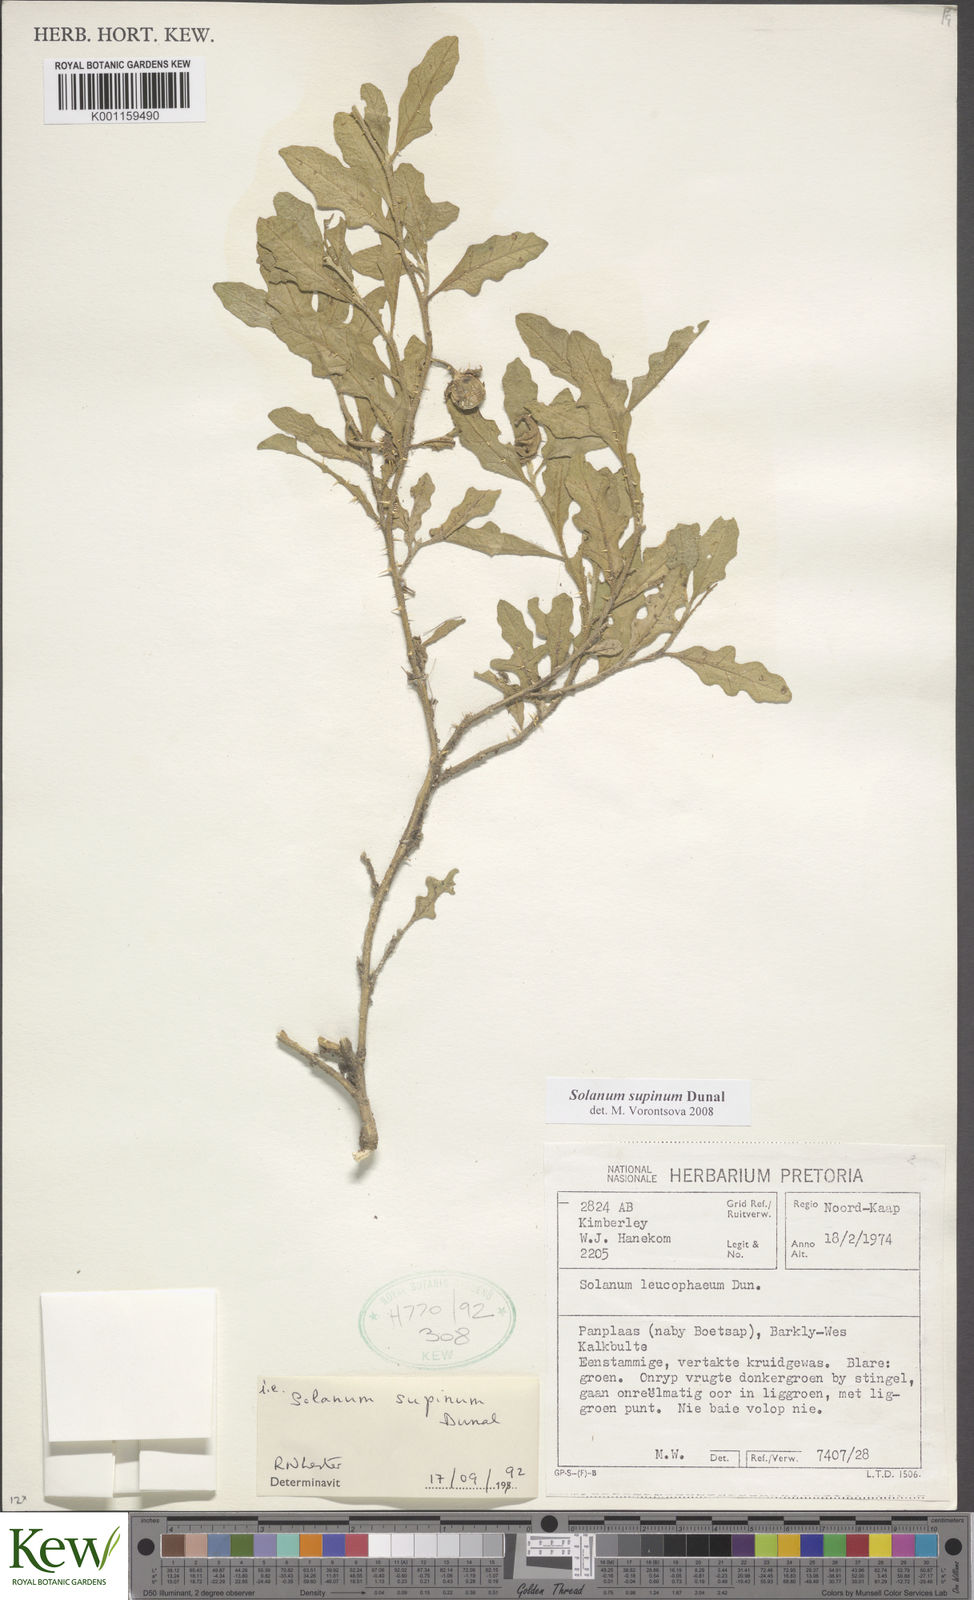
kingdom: Plantae
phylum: Tracheophyta
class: Magnoliopsida
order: Solanales
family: Solanaceae
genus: Solanum
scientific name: Solanum supinum
